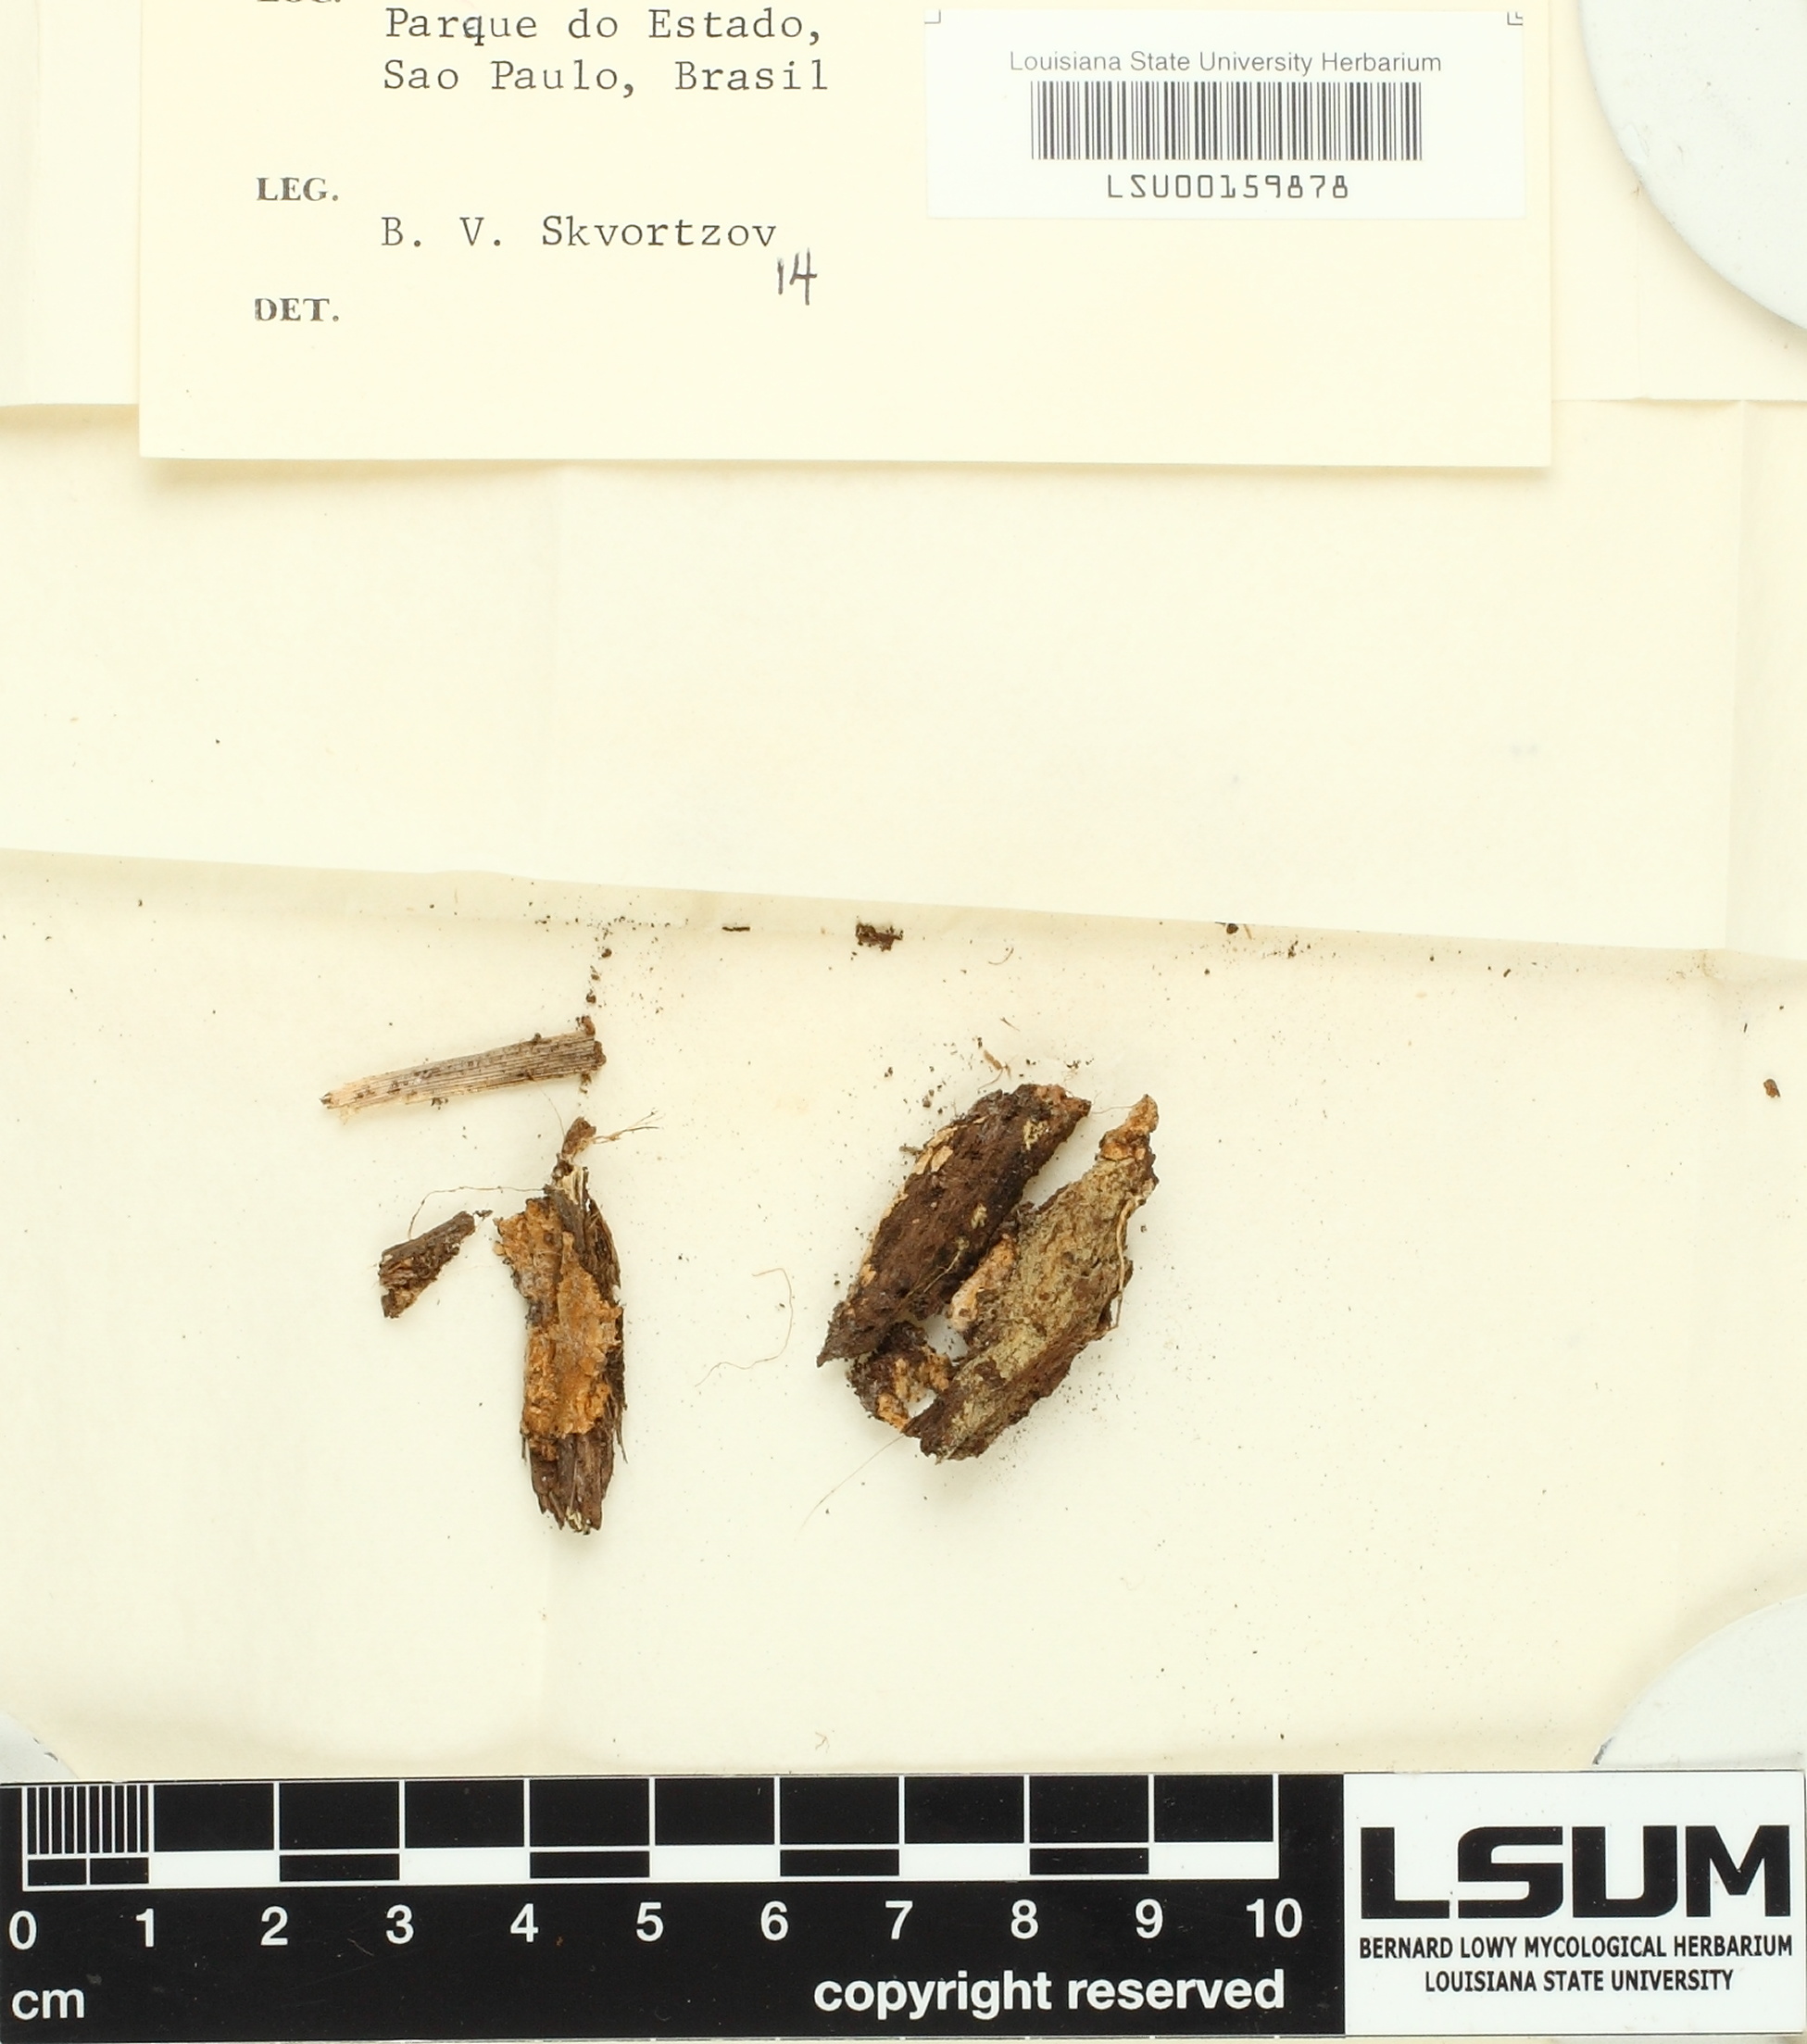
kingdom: Fungi
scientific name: Fungi
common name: Fungi
